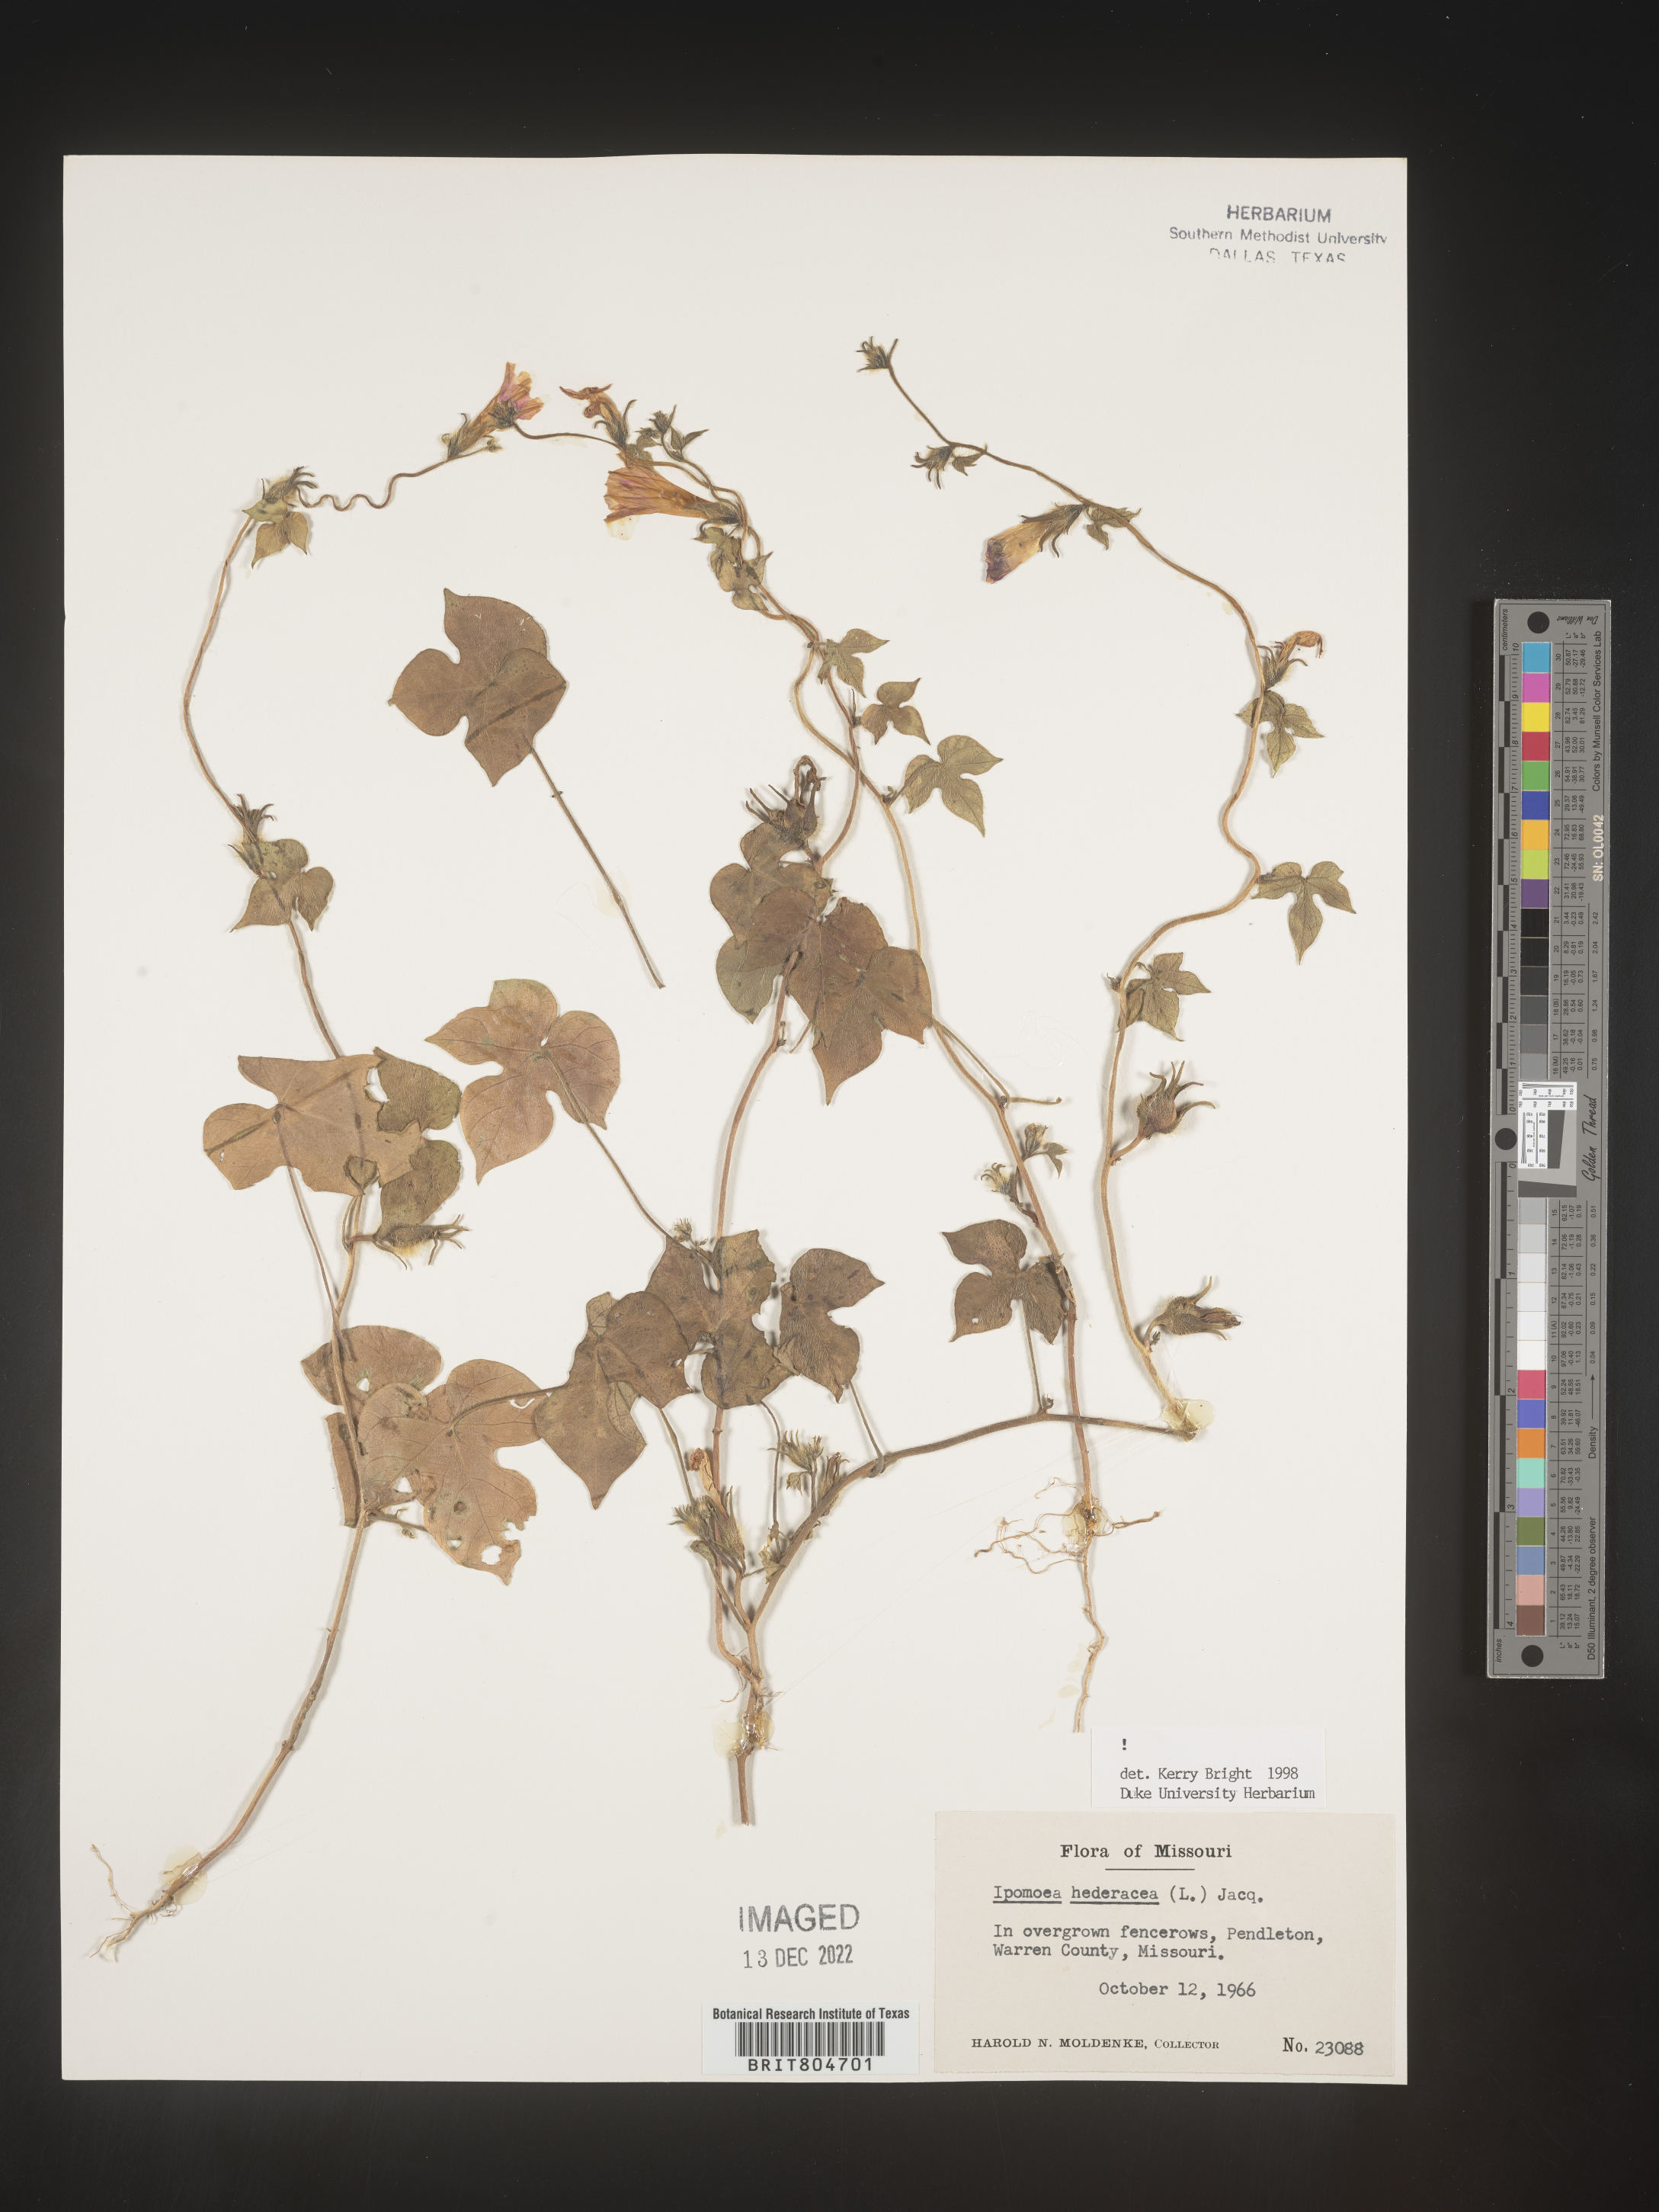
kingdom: Plantae
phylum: Tracheophyta
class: Magnoliopsida
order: Solanales
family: Convolvulaceae
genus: Ipomoea
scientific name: Ipomoea hederacea
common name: Ivy-leaved morning-glory
